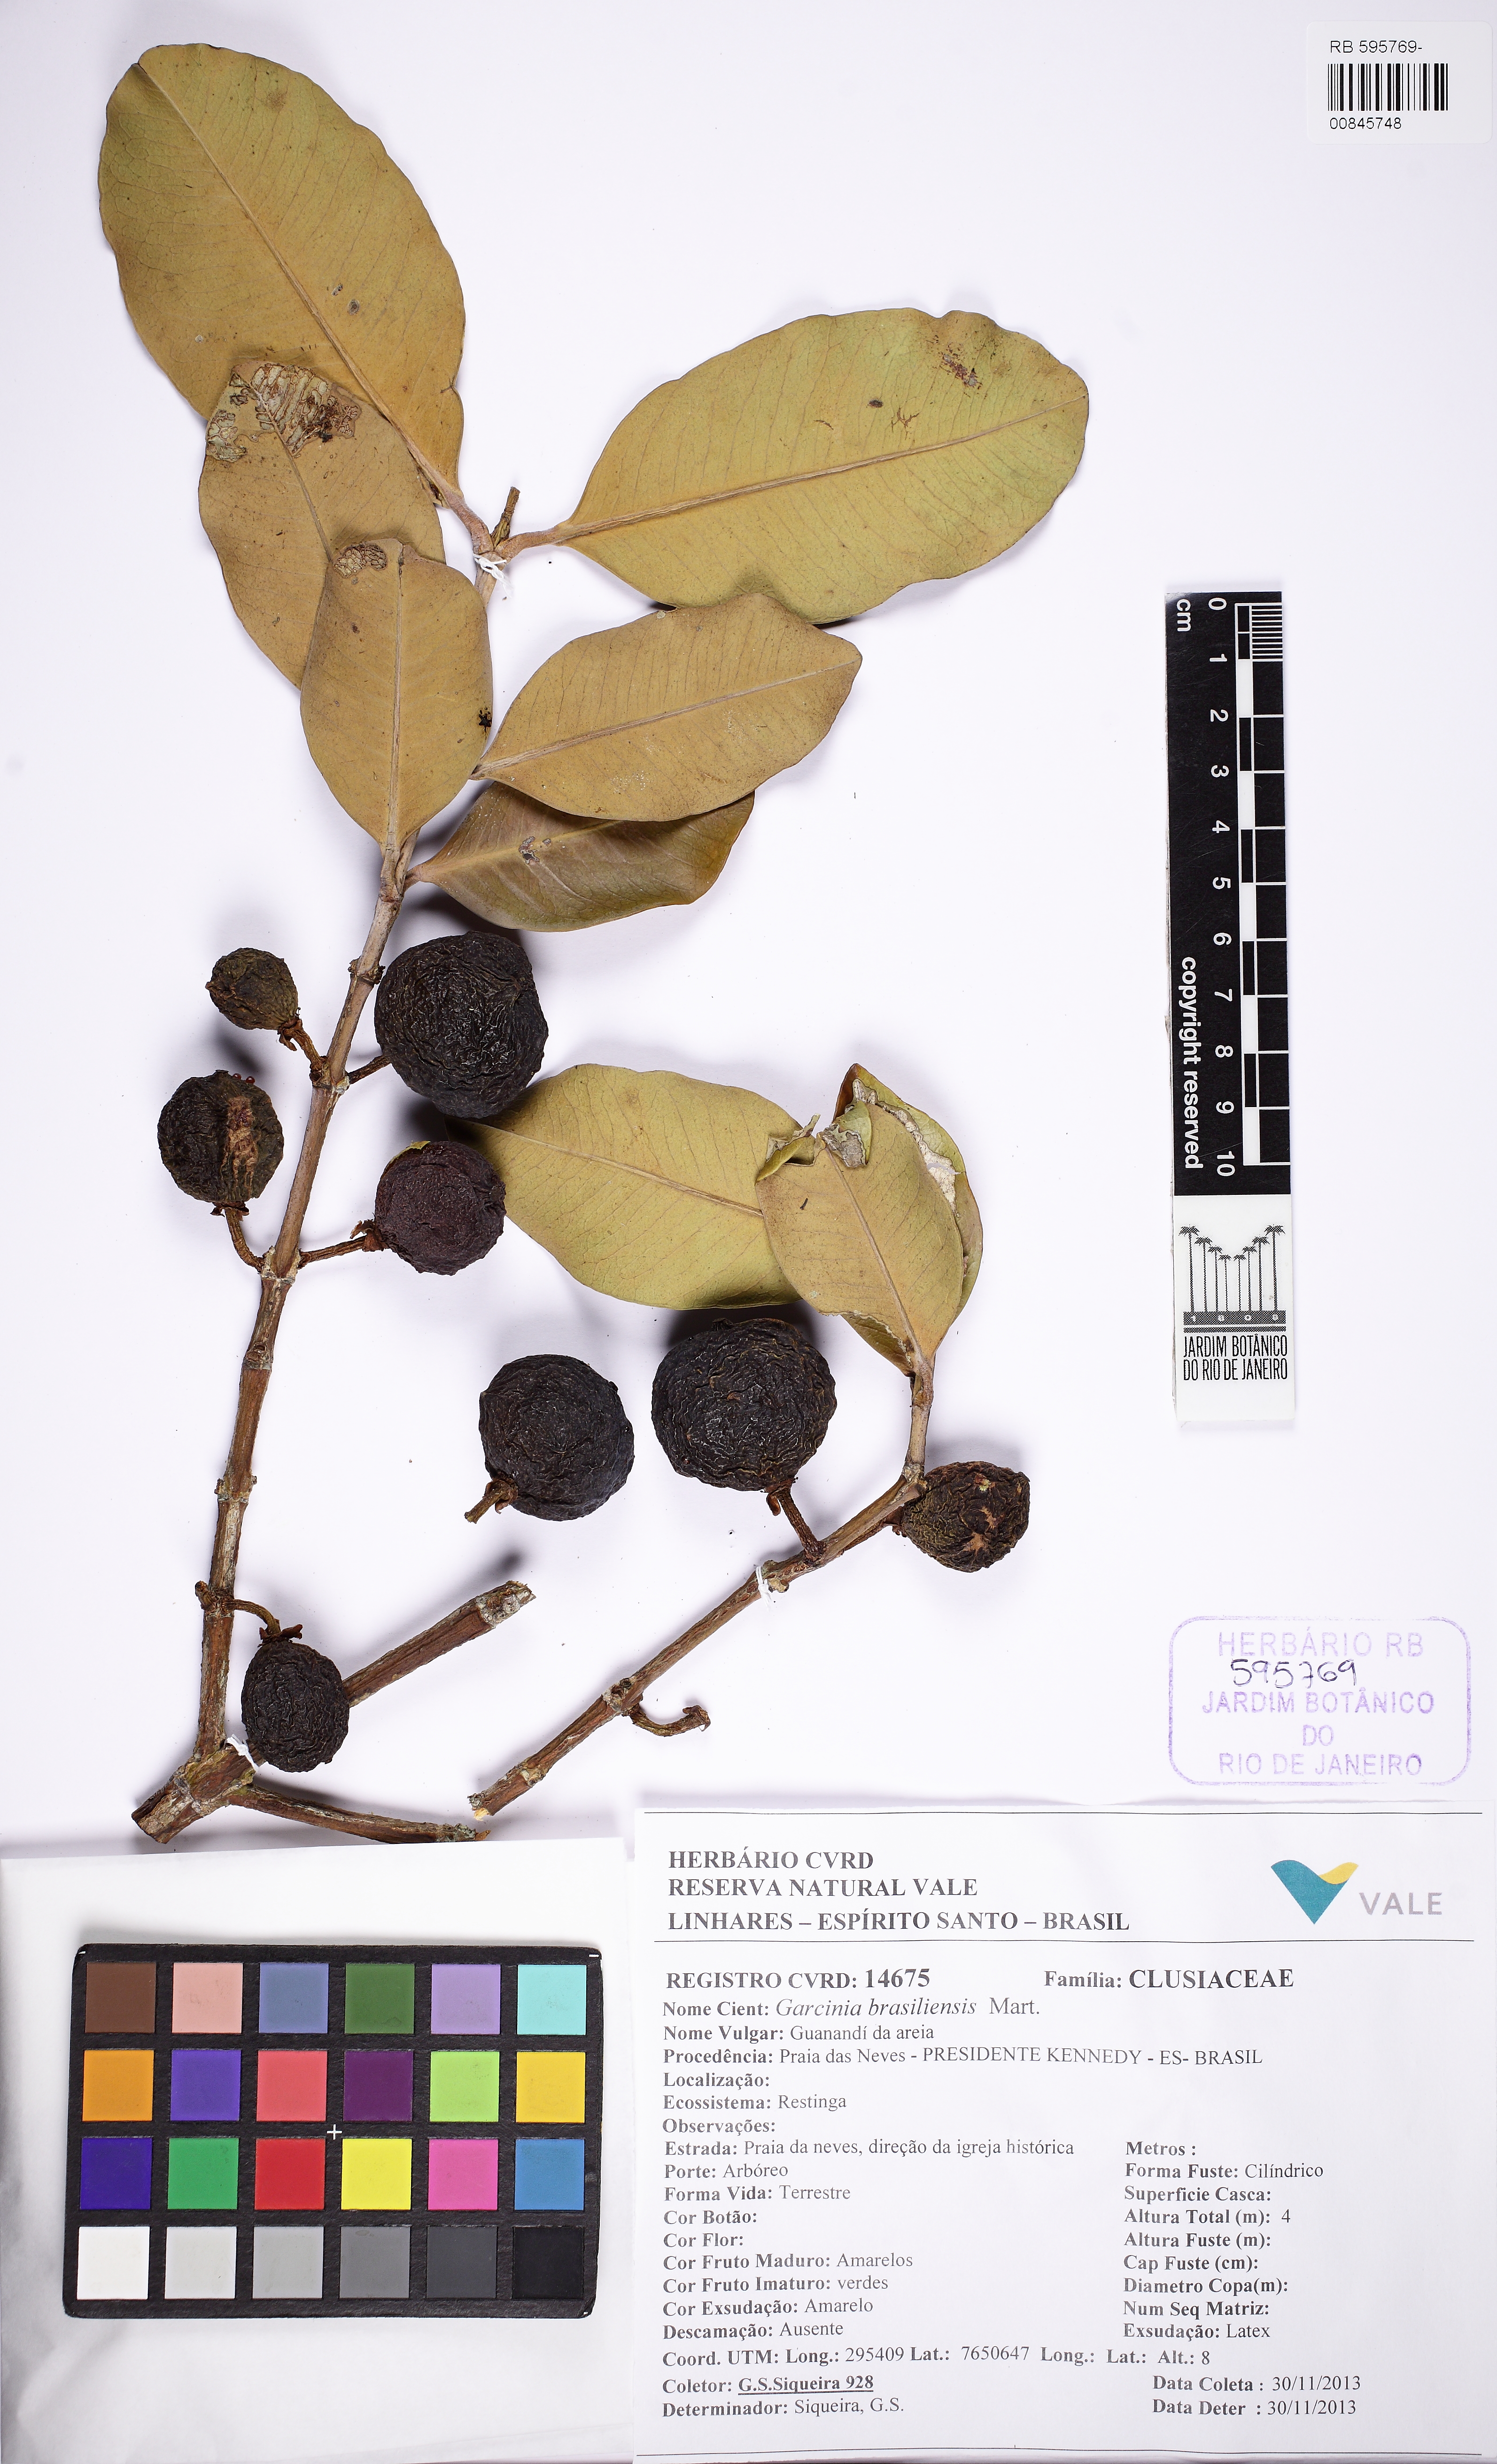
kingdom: Plantae
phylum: Tracheophyta
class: Magnoliopsida
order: Malpighiales
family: Clusiaceae
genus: Garcinia
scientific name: Garcinia brasiliensis
